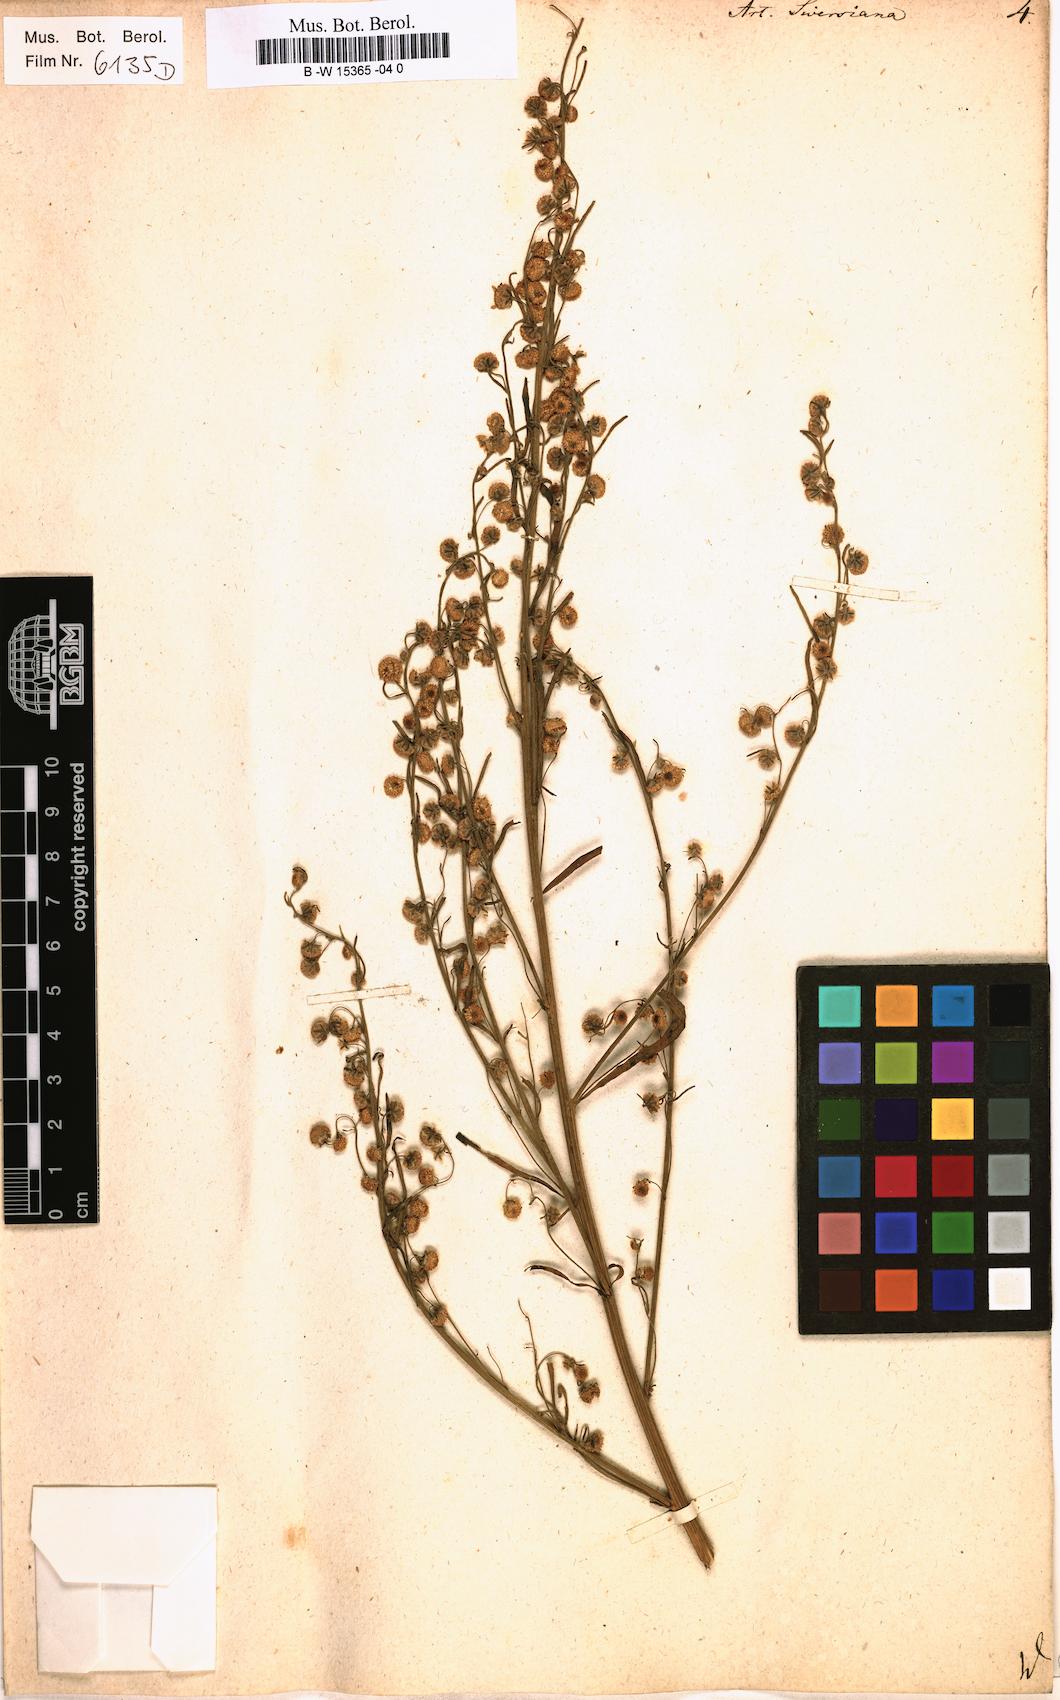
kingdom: Plantae
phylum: Tracheophyta
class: Magnoliopsida
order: Asterales
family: Asteraceae
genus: Artemisia
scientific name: Artemisia sieversiana
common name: Sieversian wormwood
